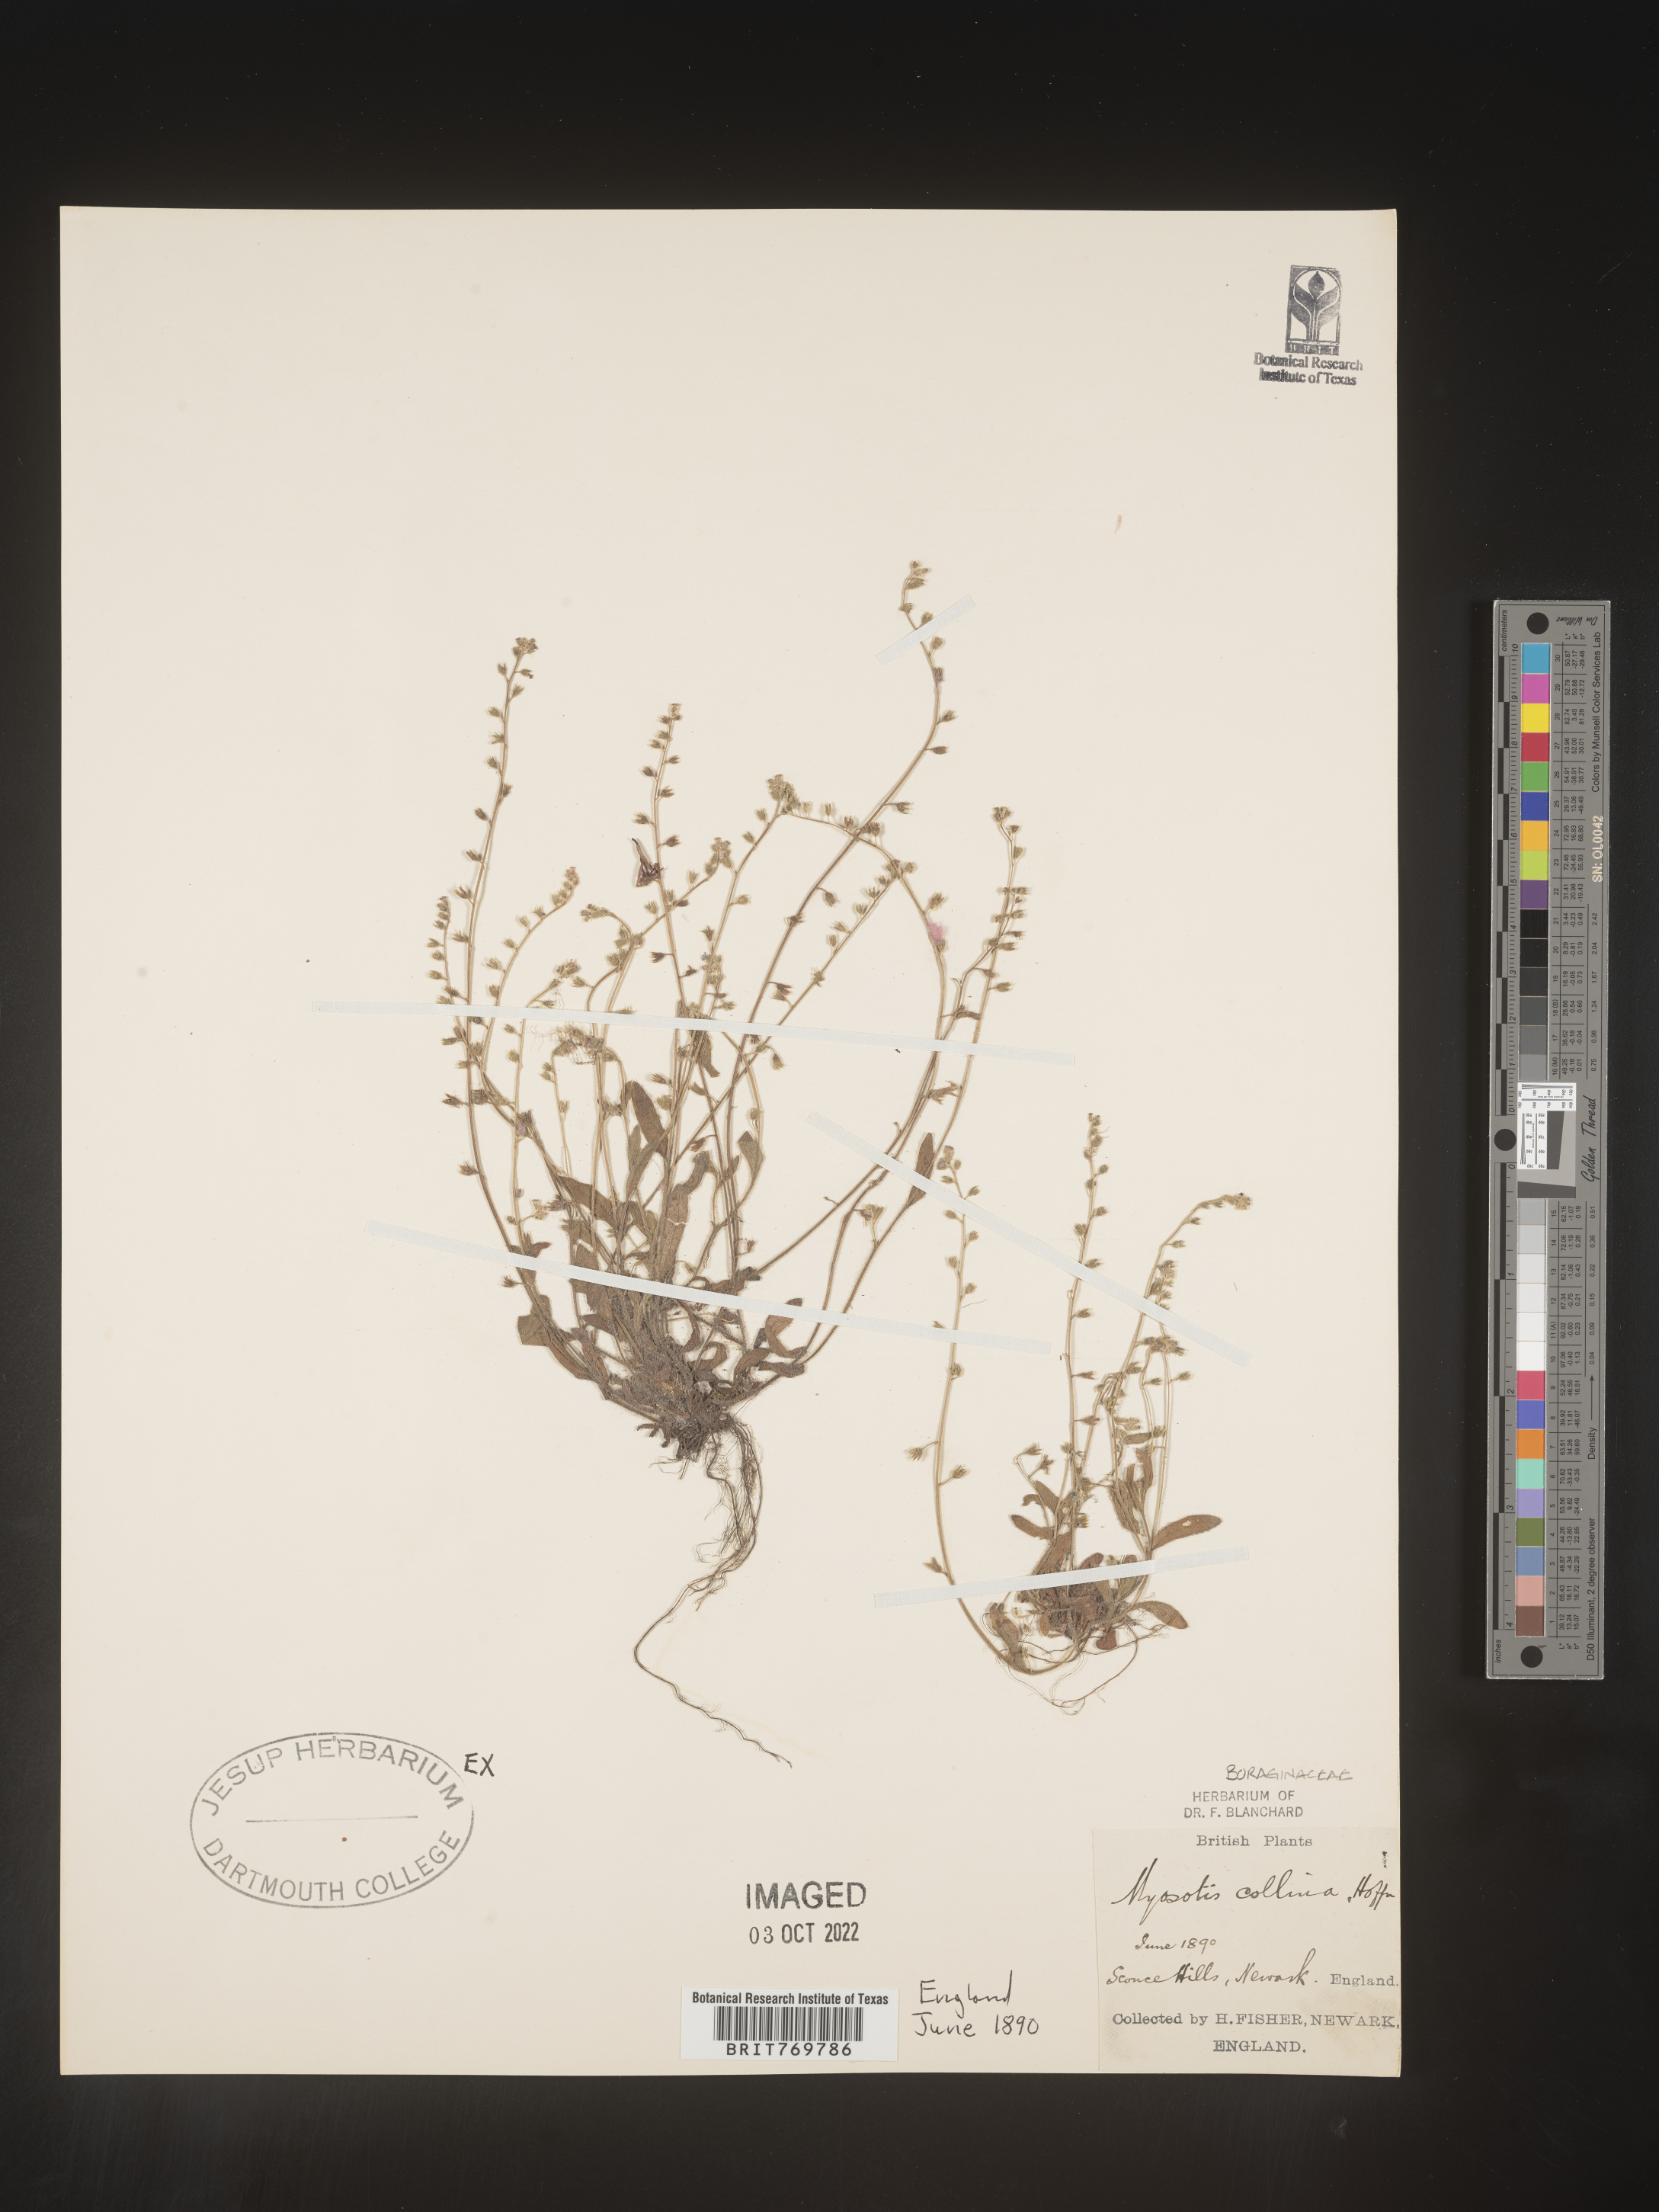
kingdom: Plantae
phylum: Tracheophyta
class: Magnoliopsida
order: Boraginales
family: Boraginaceae
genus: Myosotis
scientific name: Myosotis
